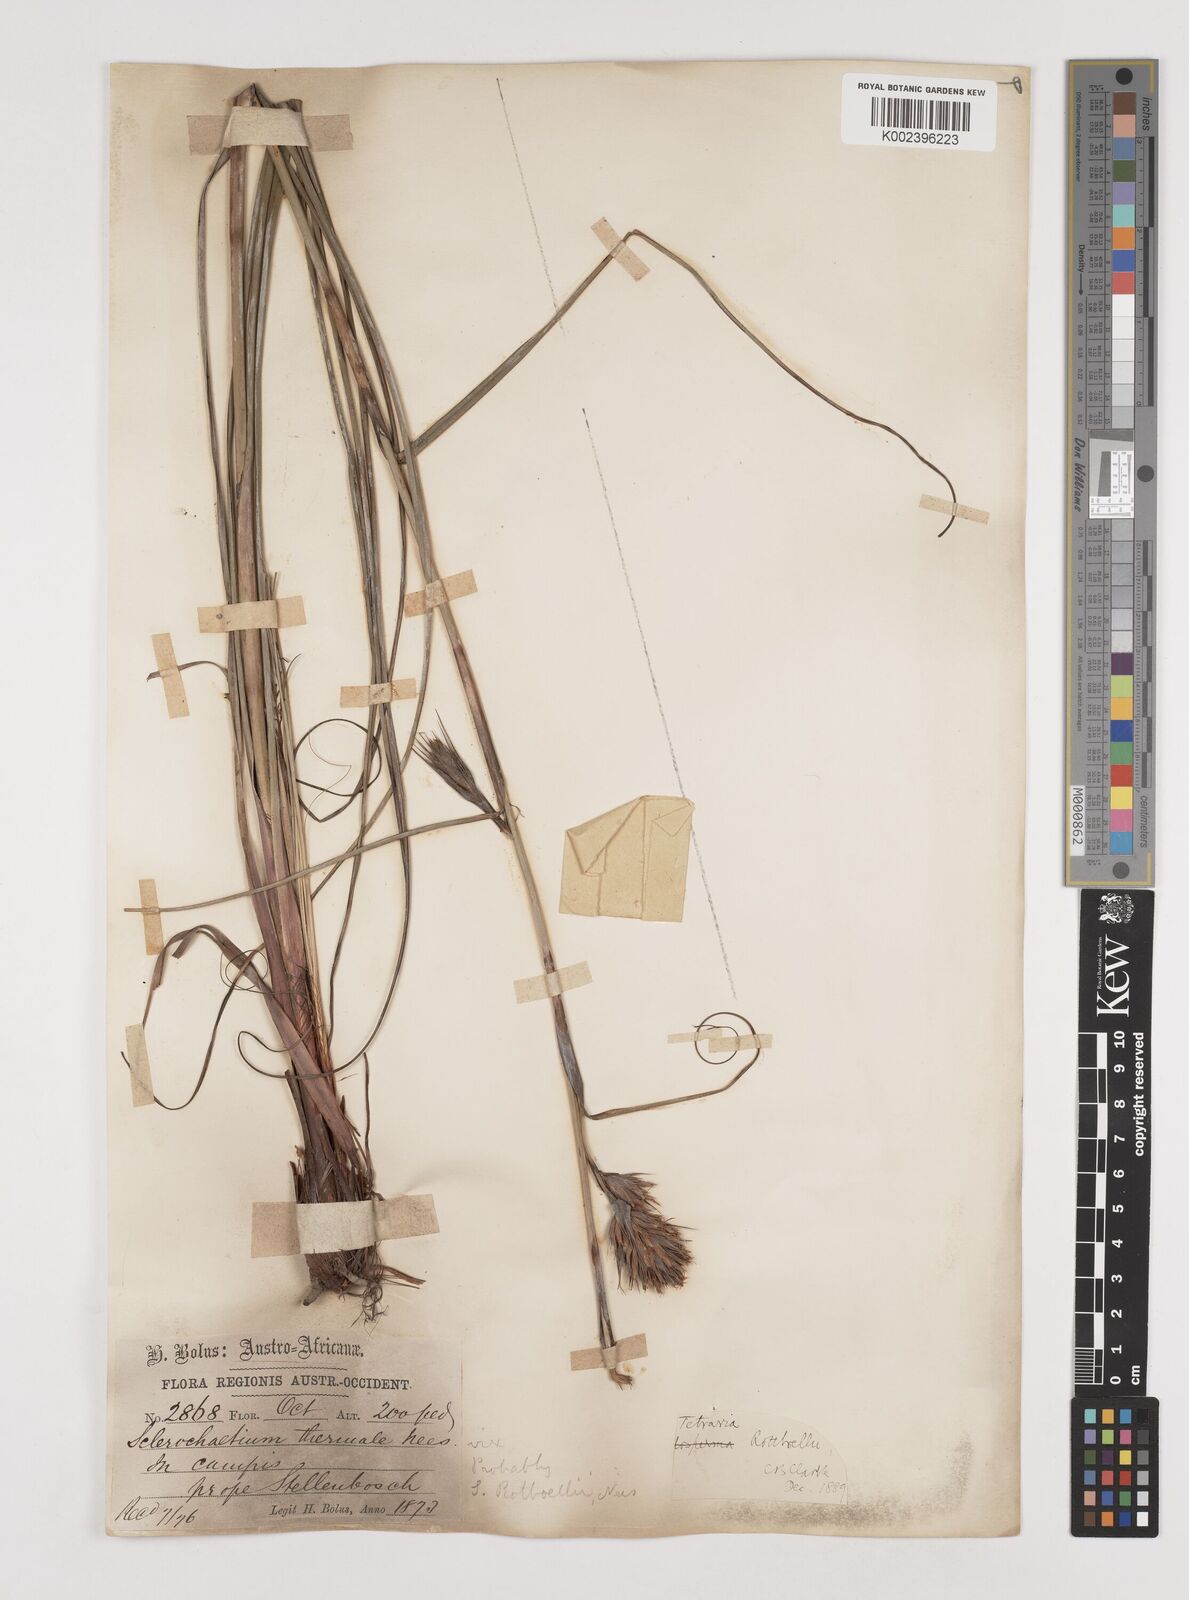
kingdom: Plantae
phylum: Tracheophyta
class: Liliopsida
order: Poales
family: Cyperaceae
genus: Tetraria
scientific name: Tetraria bromoides
